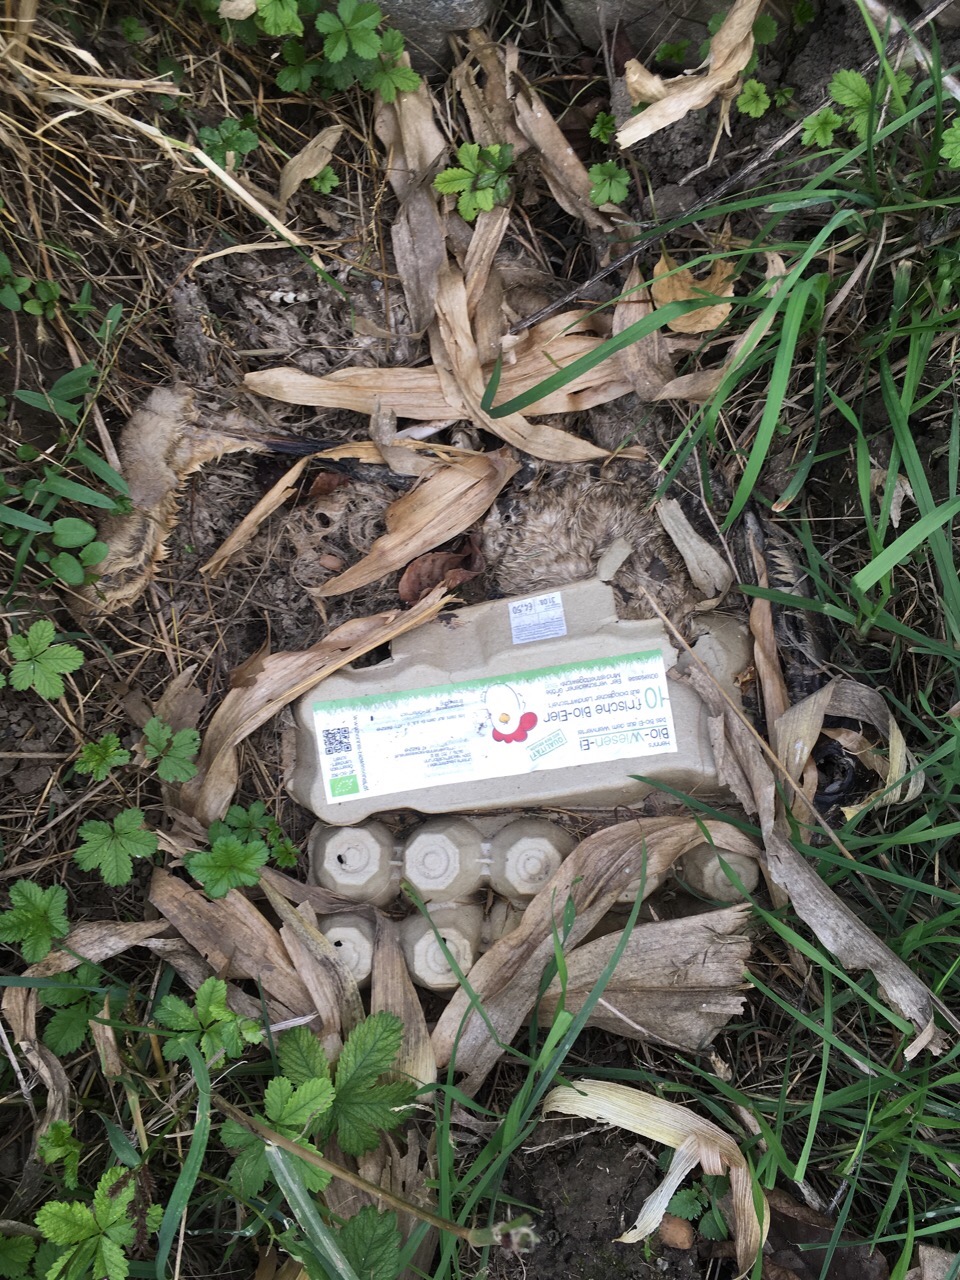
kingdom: Animalia
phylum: Chordata
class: Mammalia
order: Lagomorpha
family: Leporidae
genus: Lepus
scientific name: Lepus europaeus
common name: European hare
